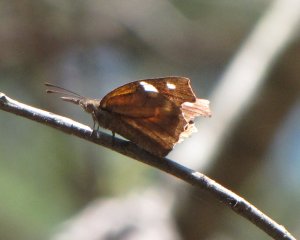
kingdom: Animalia
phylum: Arthropoda
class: Insecta
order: Lepidoptera
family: Nymphalidae
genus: Libytheana
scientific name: Libytheana carinenta
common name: American Snout
